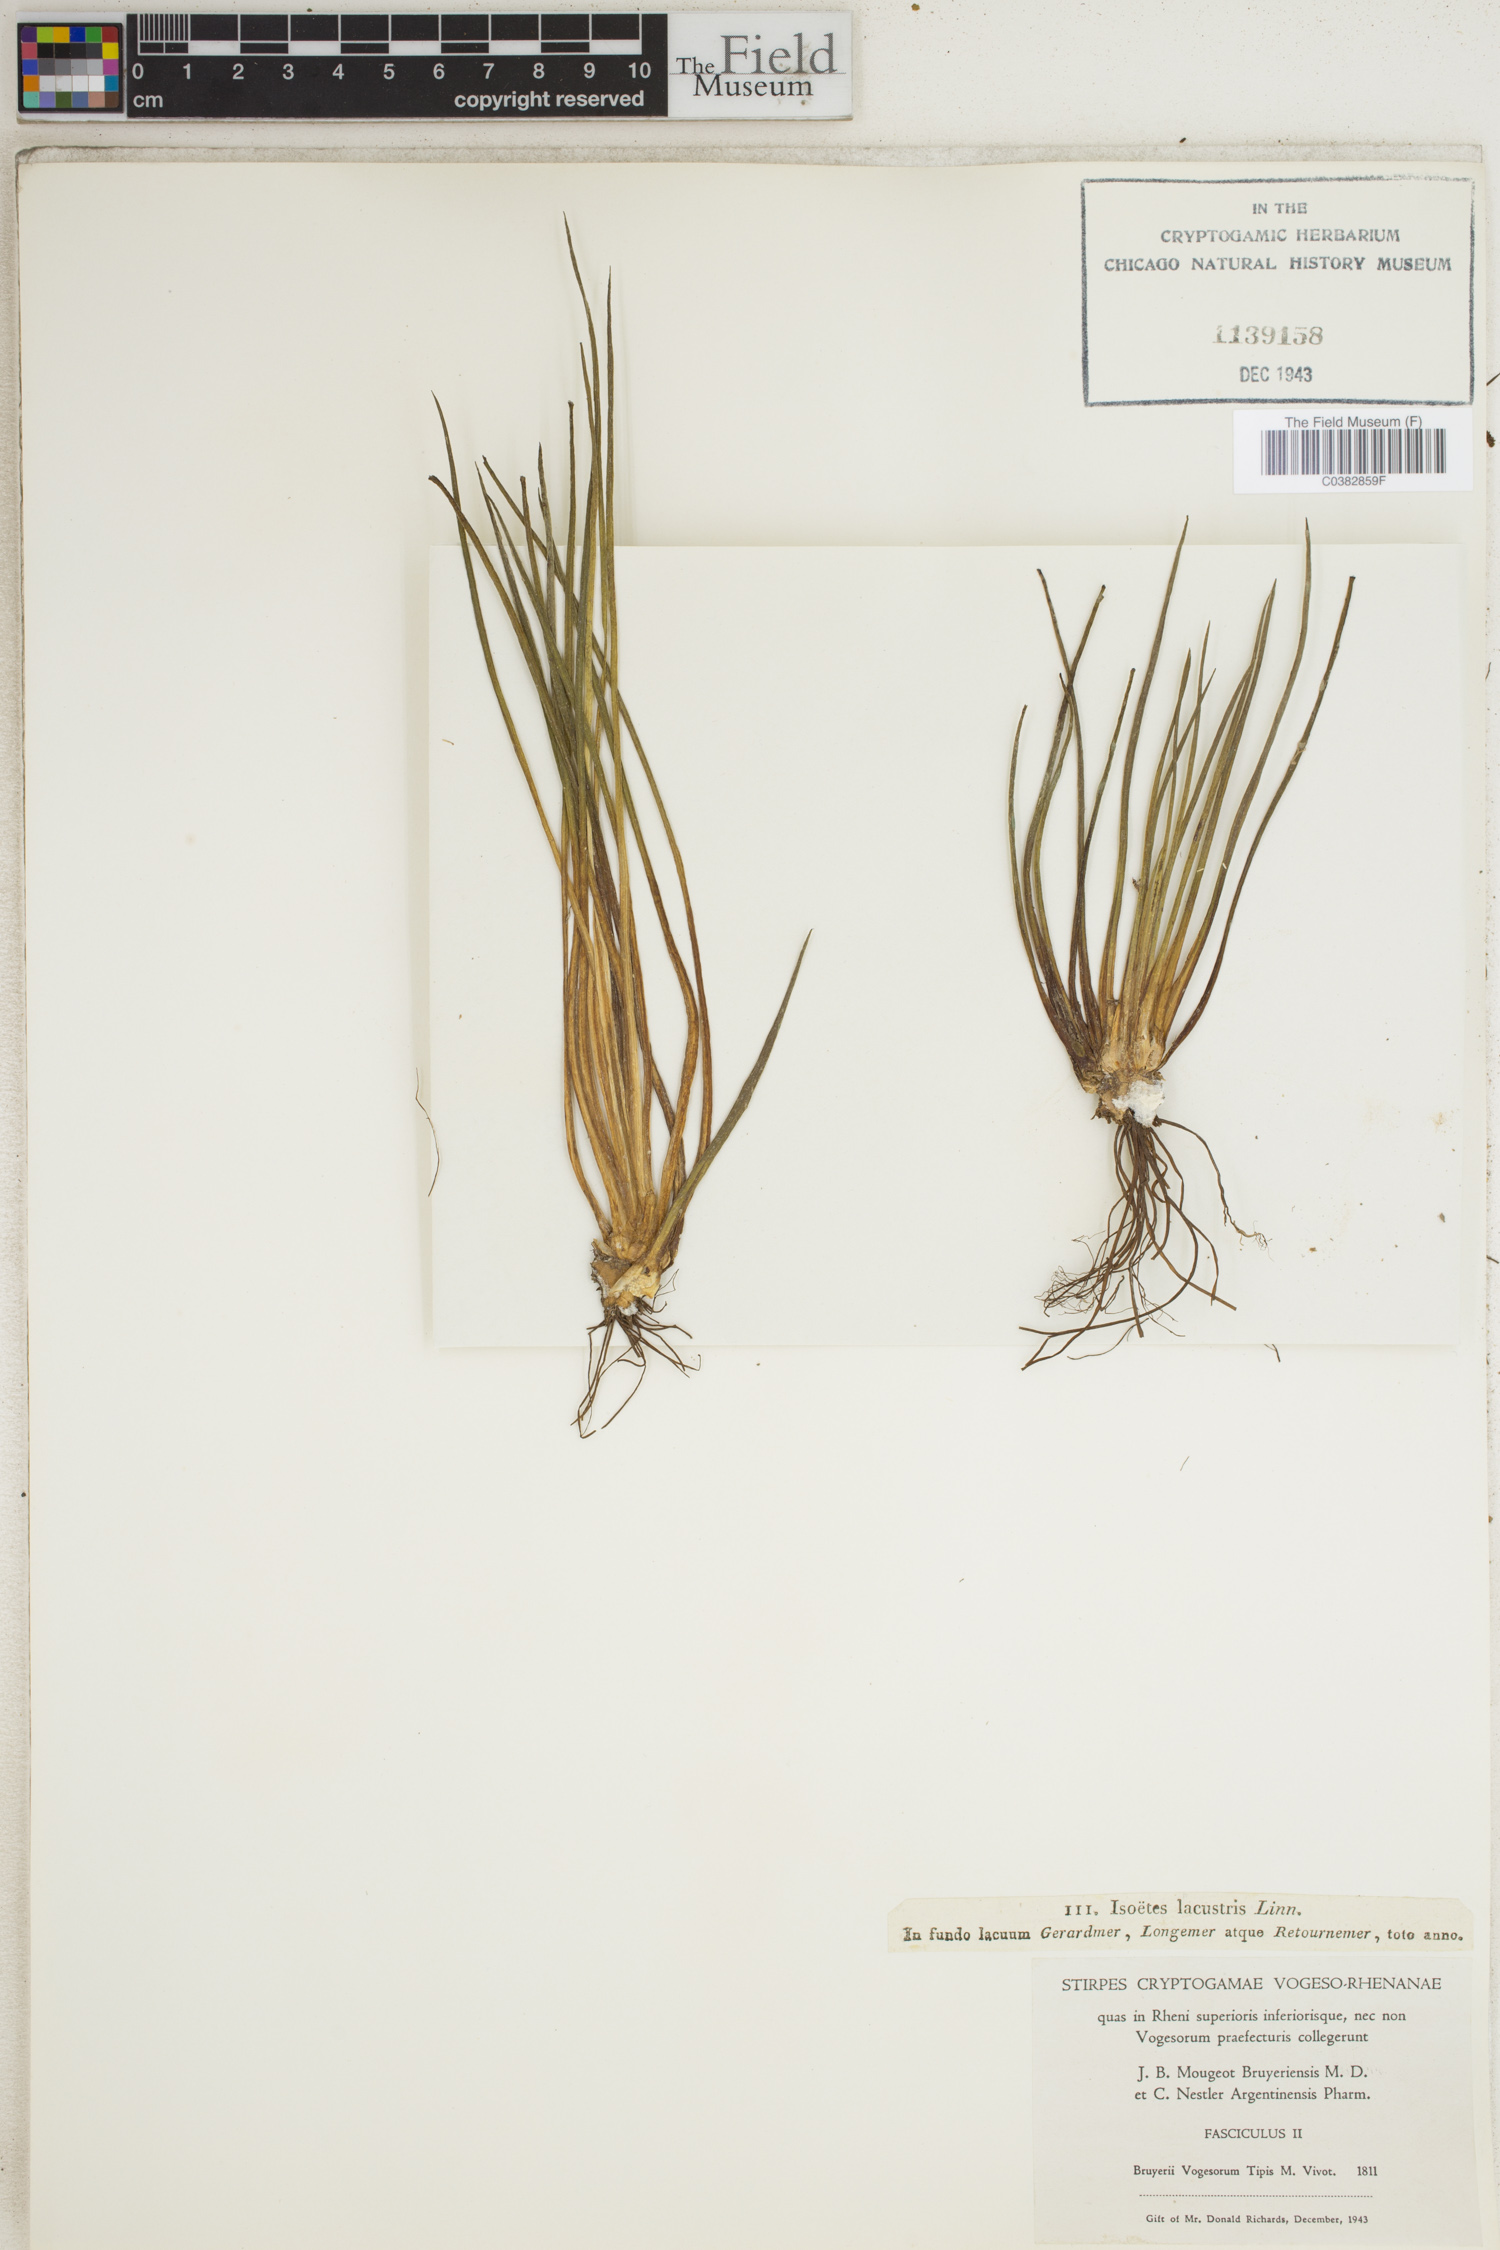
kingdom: Plantae
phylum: Tracheophyta
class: Lycopodiopsida
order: Isoetales
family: Isoetaceae
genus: Isoetes
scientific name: Isoetes lacustris
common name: Common quillwort
